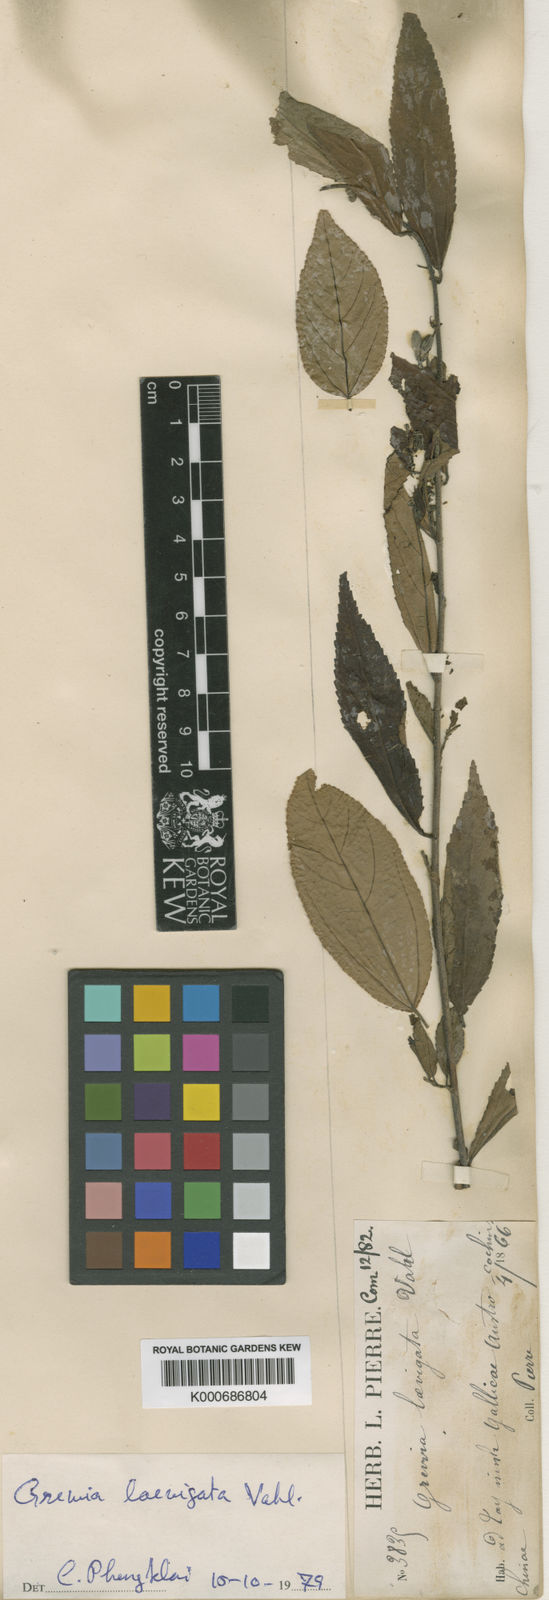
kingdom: Plantae
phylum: Tracheophyta
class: Magnoliopsida
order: Malvales
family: Malvaceae
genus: Grewia
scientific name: Grewia laevigata
